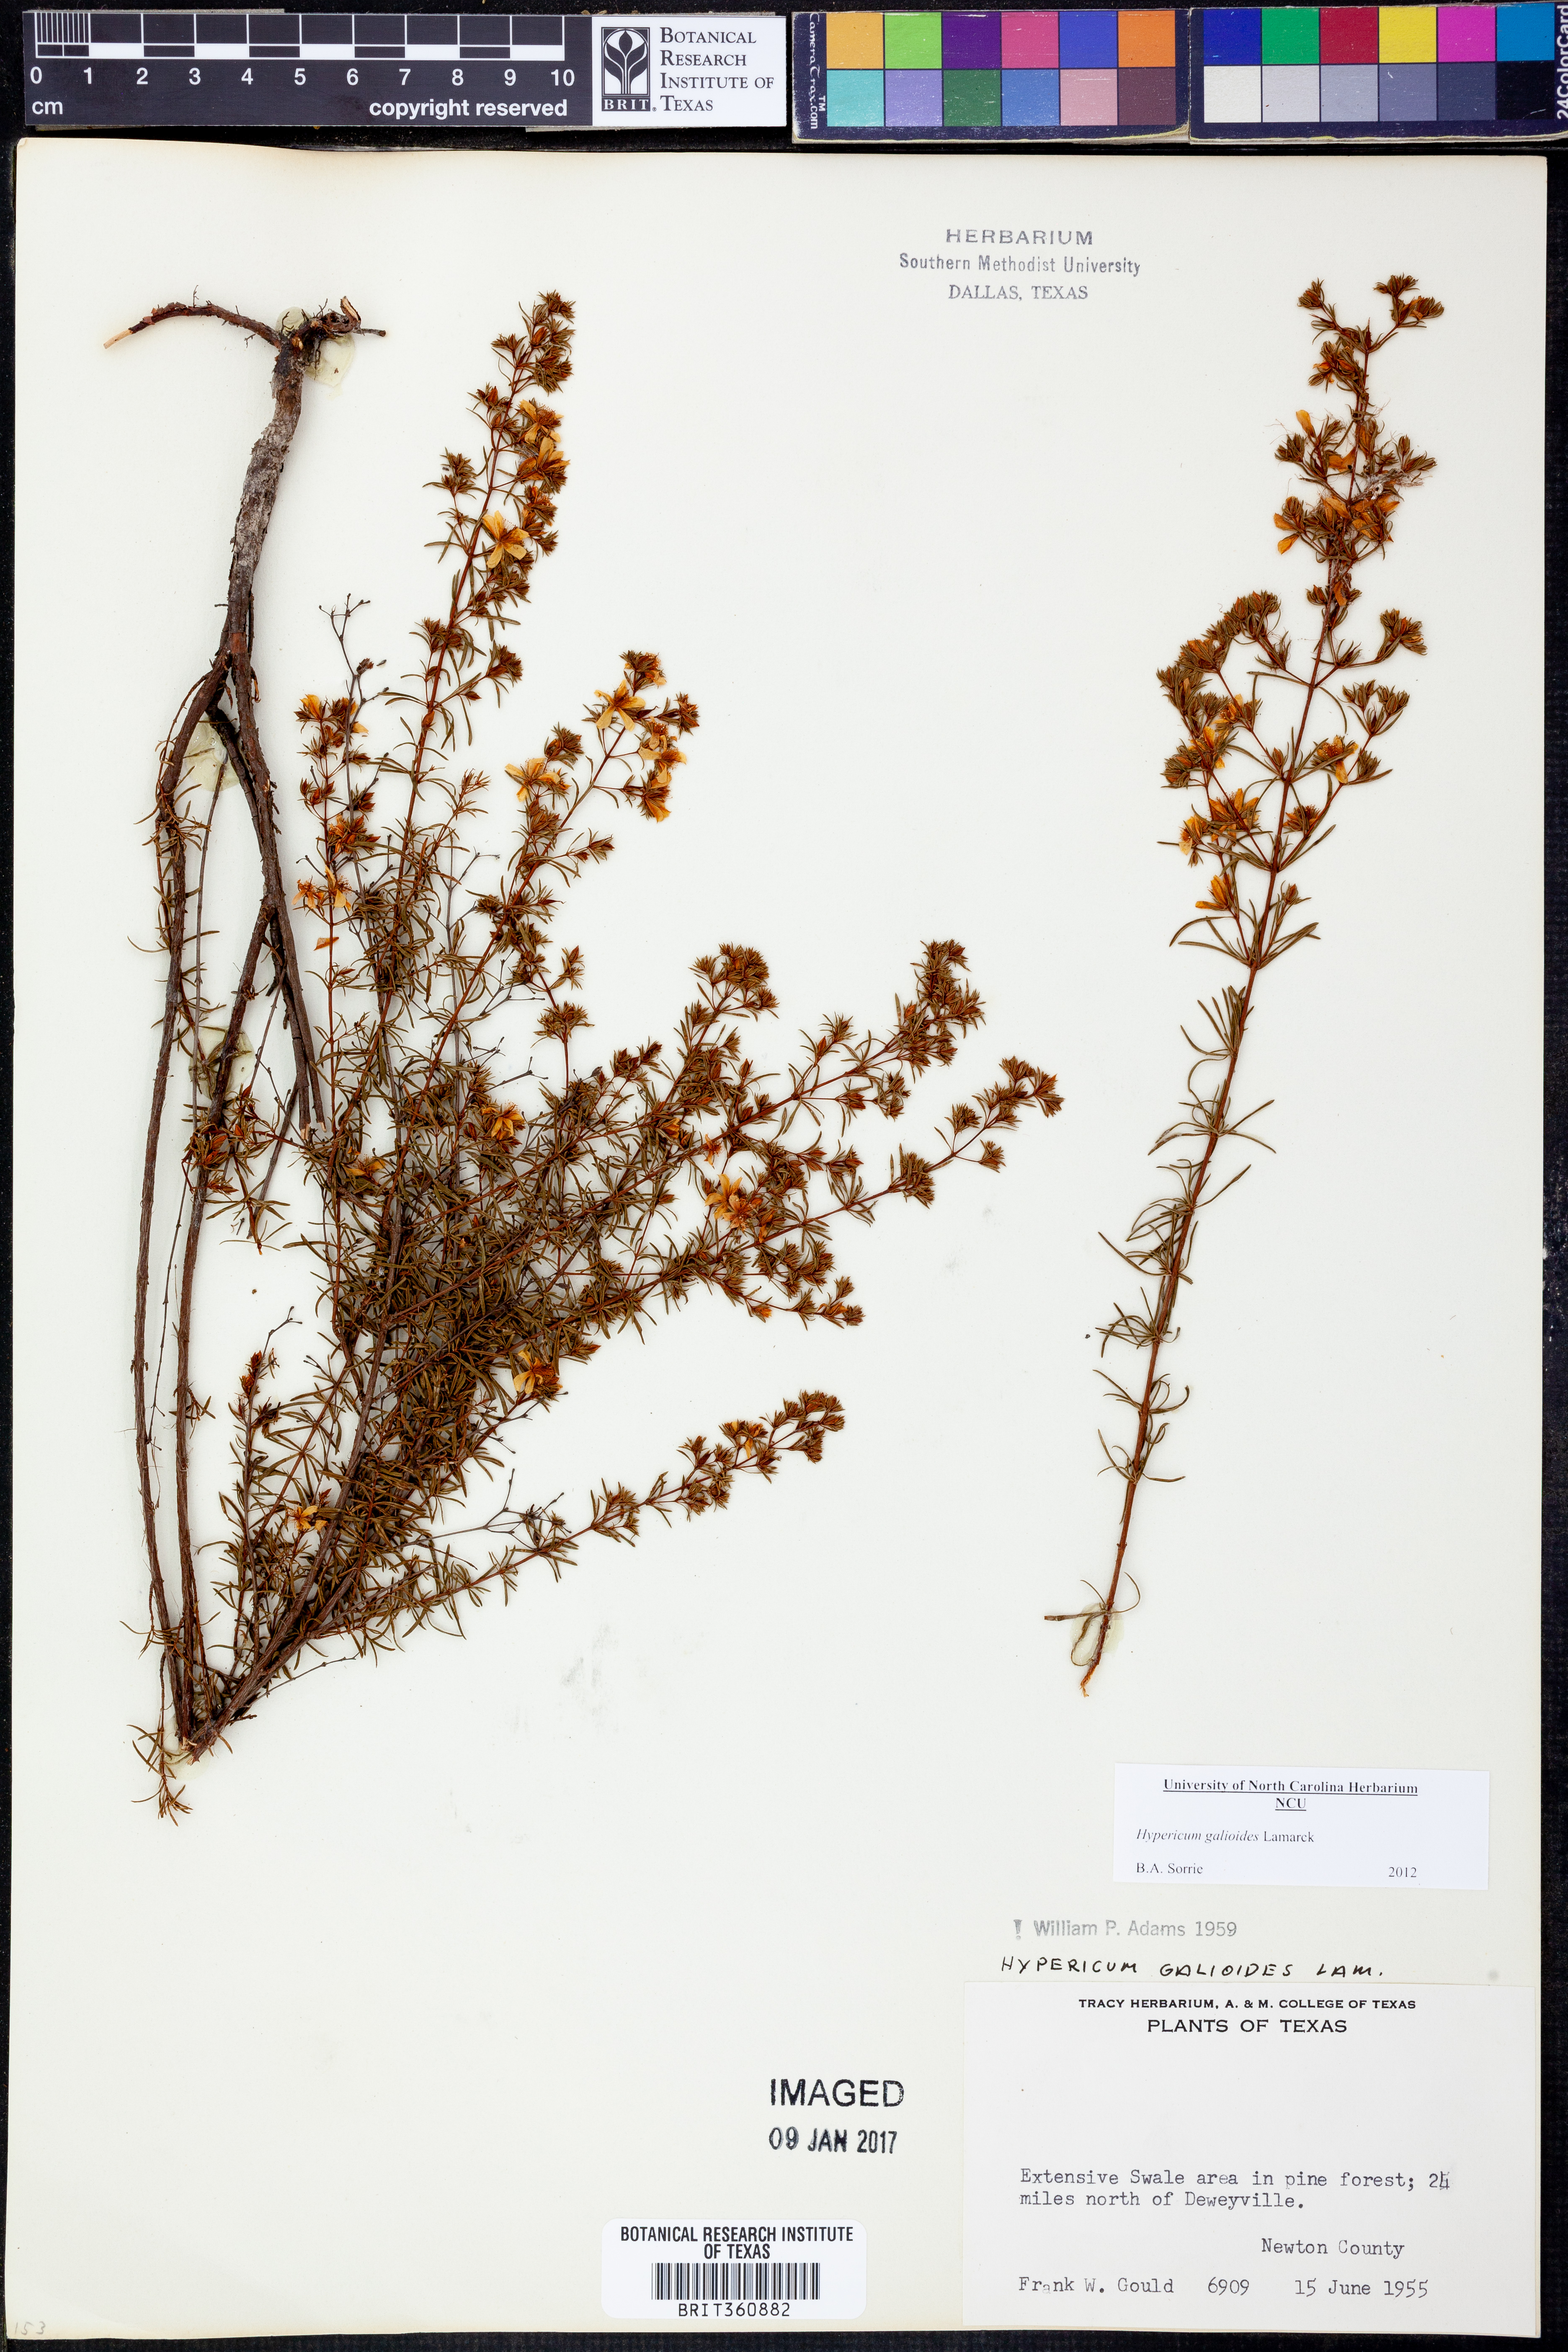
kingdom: Plantae
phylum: Tracheophyta
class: Magnoliopsida
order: Malpighiales
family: Hypericaceae
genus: Hypericum
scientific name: Hypericum galioides
